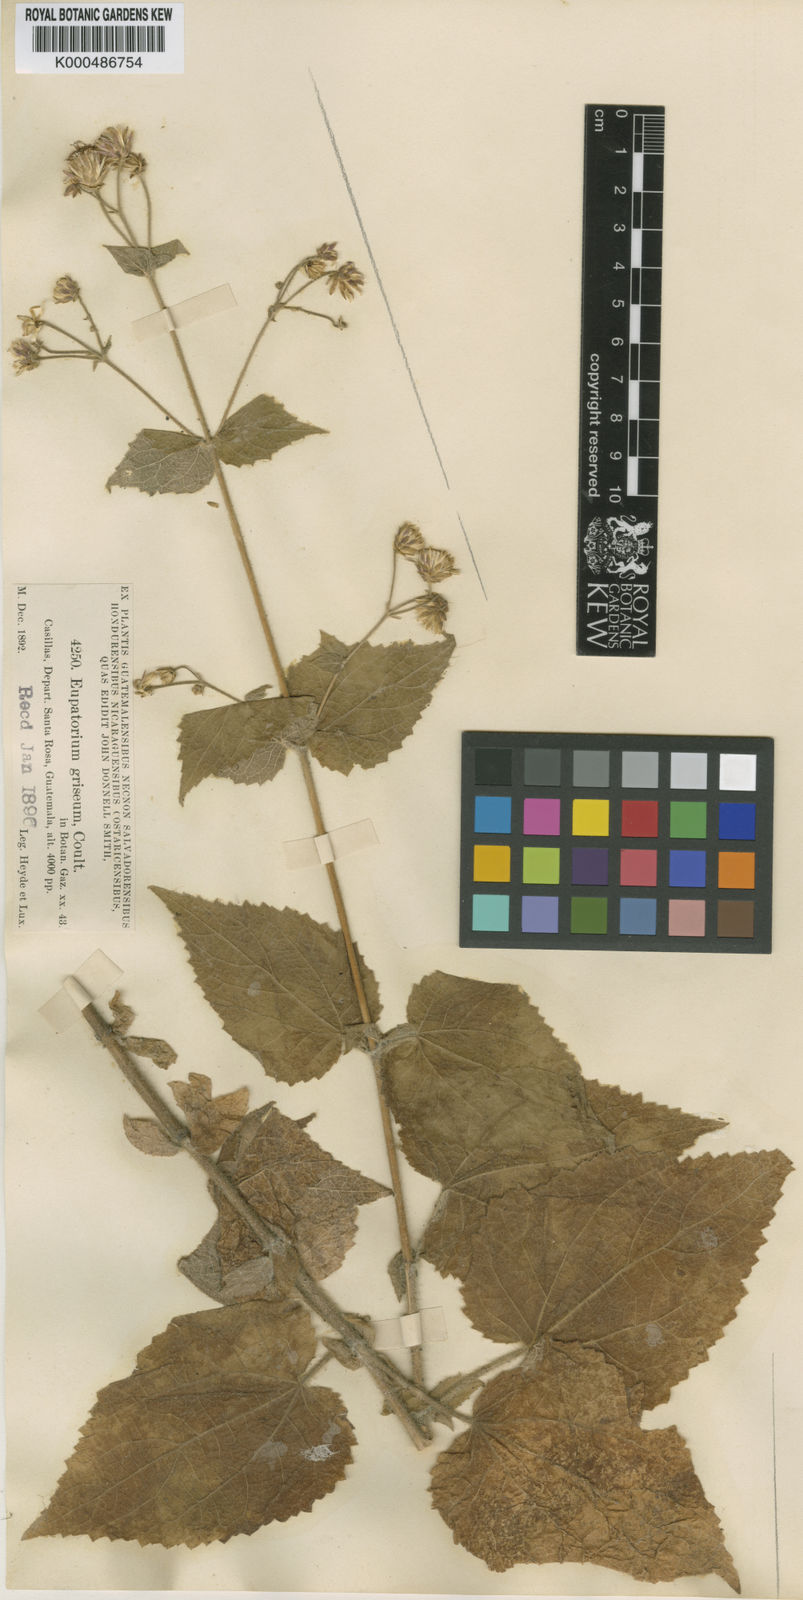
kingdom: Plantae
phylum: Tracheophyta
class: Magnoliopsida
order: Asterales
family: Asteraceae
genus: Peteravenia
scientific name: Peteravenia grisea
